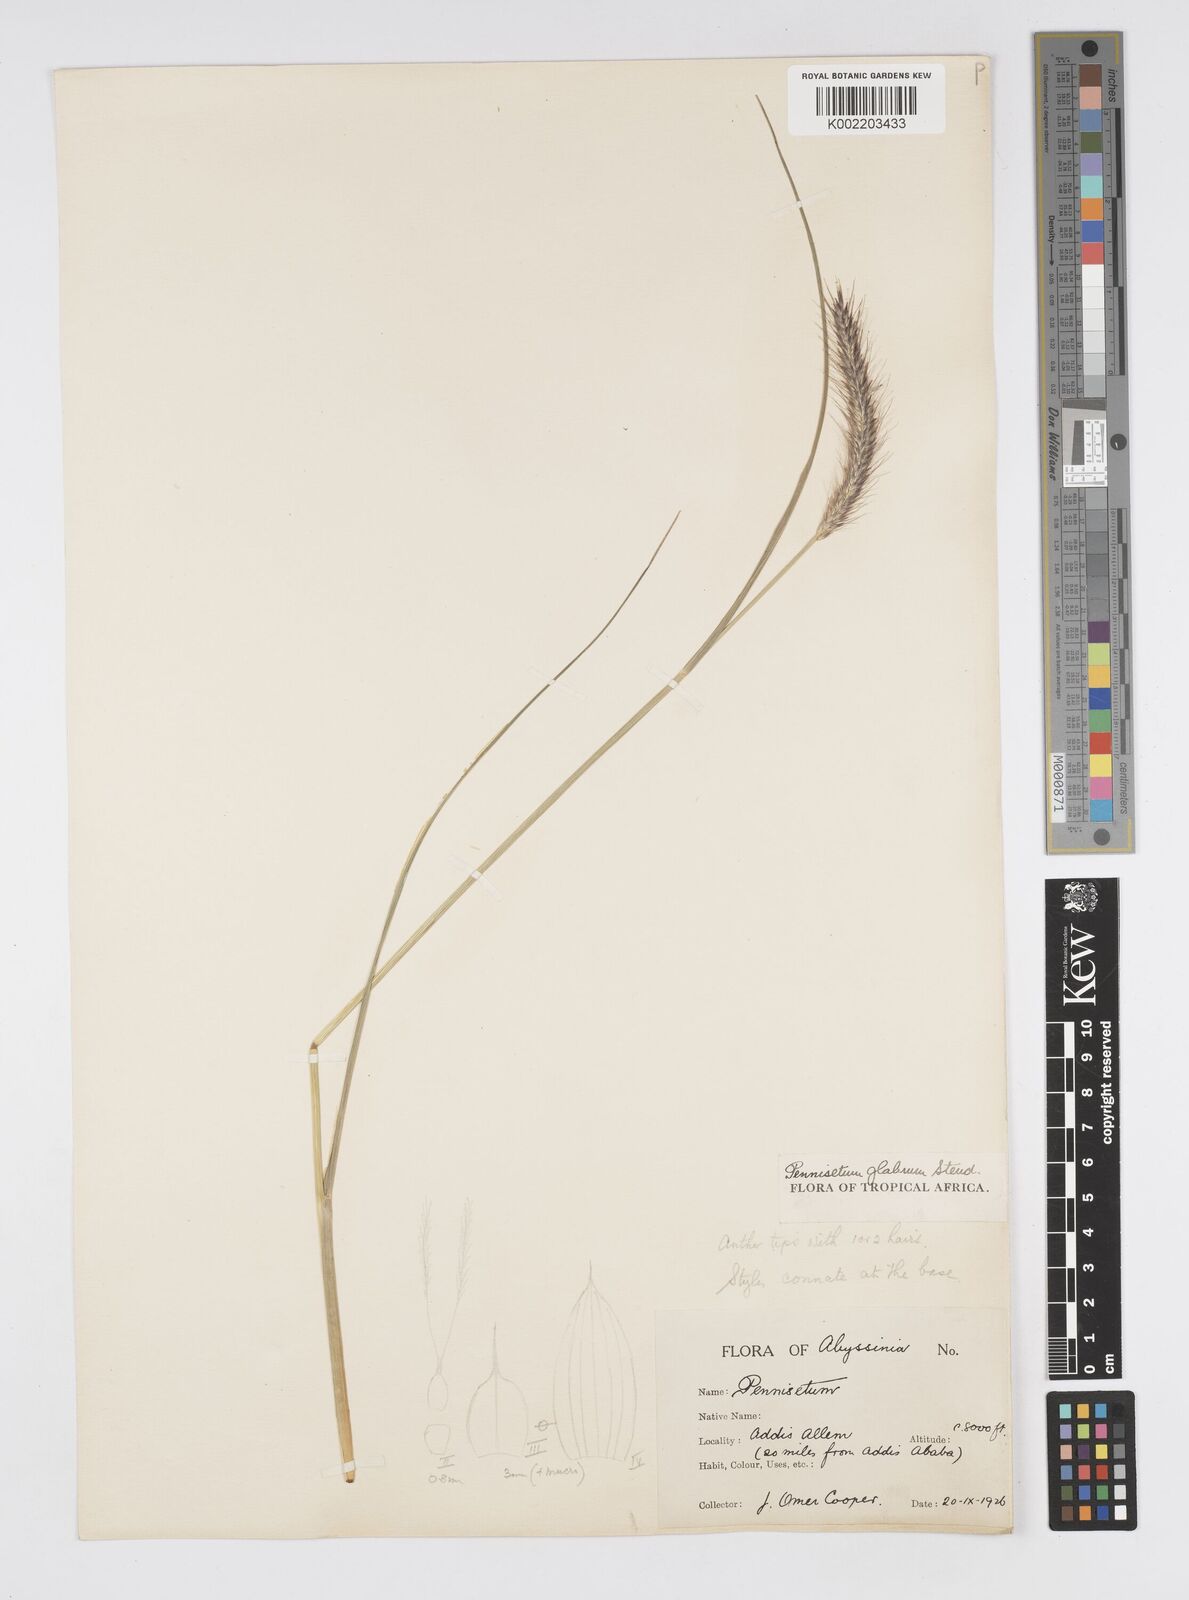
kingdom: Plantae
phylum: Tracheophyta
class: Liliopsida
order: Poales
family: Poaceae
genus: Cenchrus
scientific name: Cenchrus geniculatus
